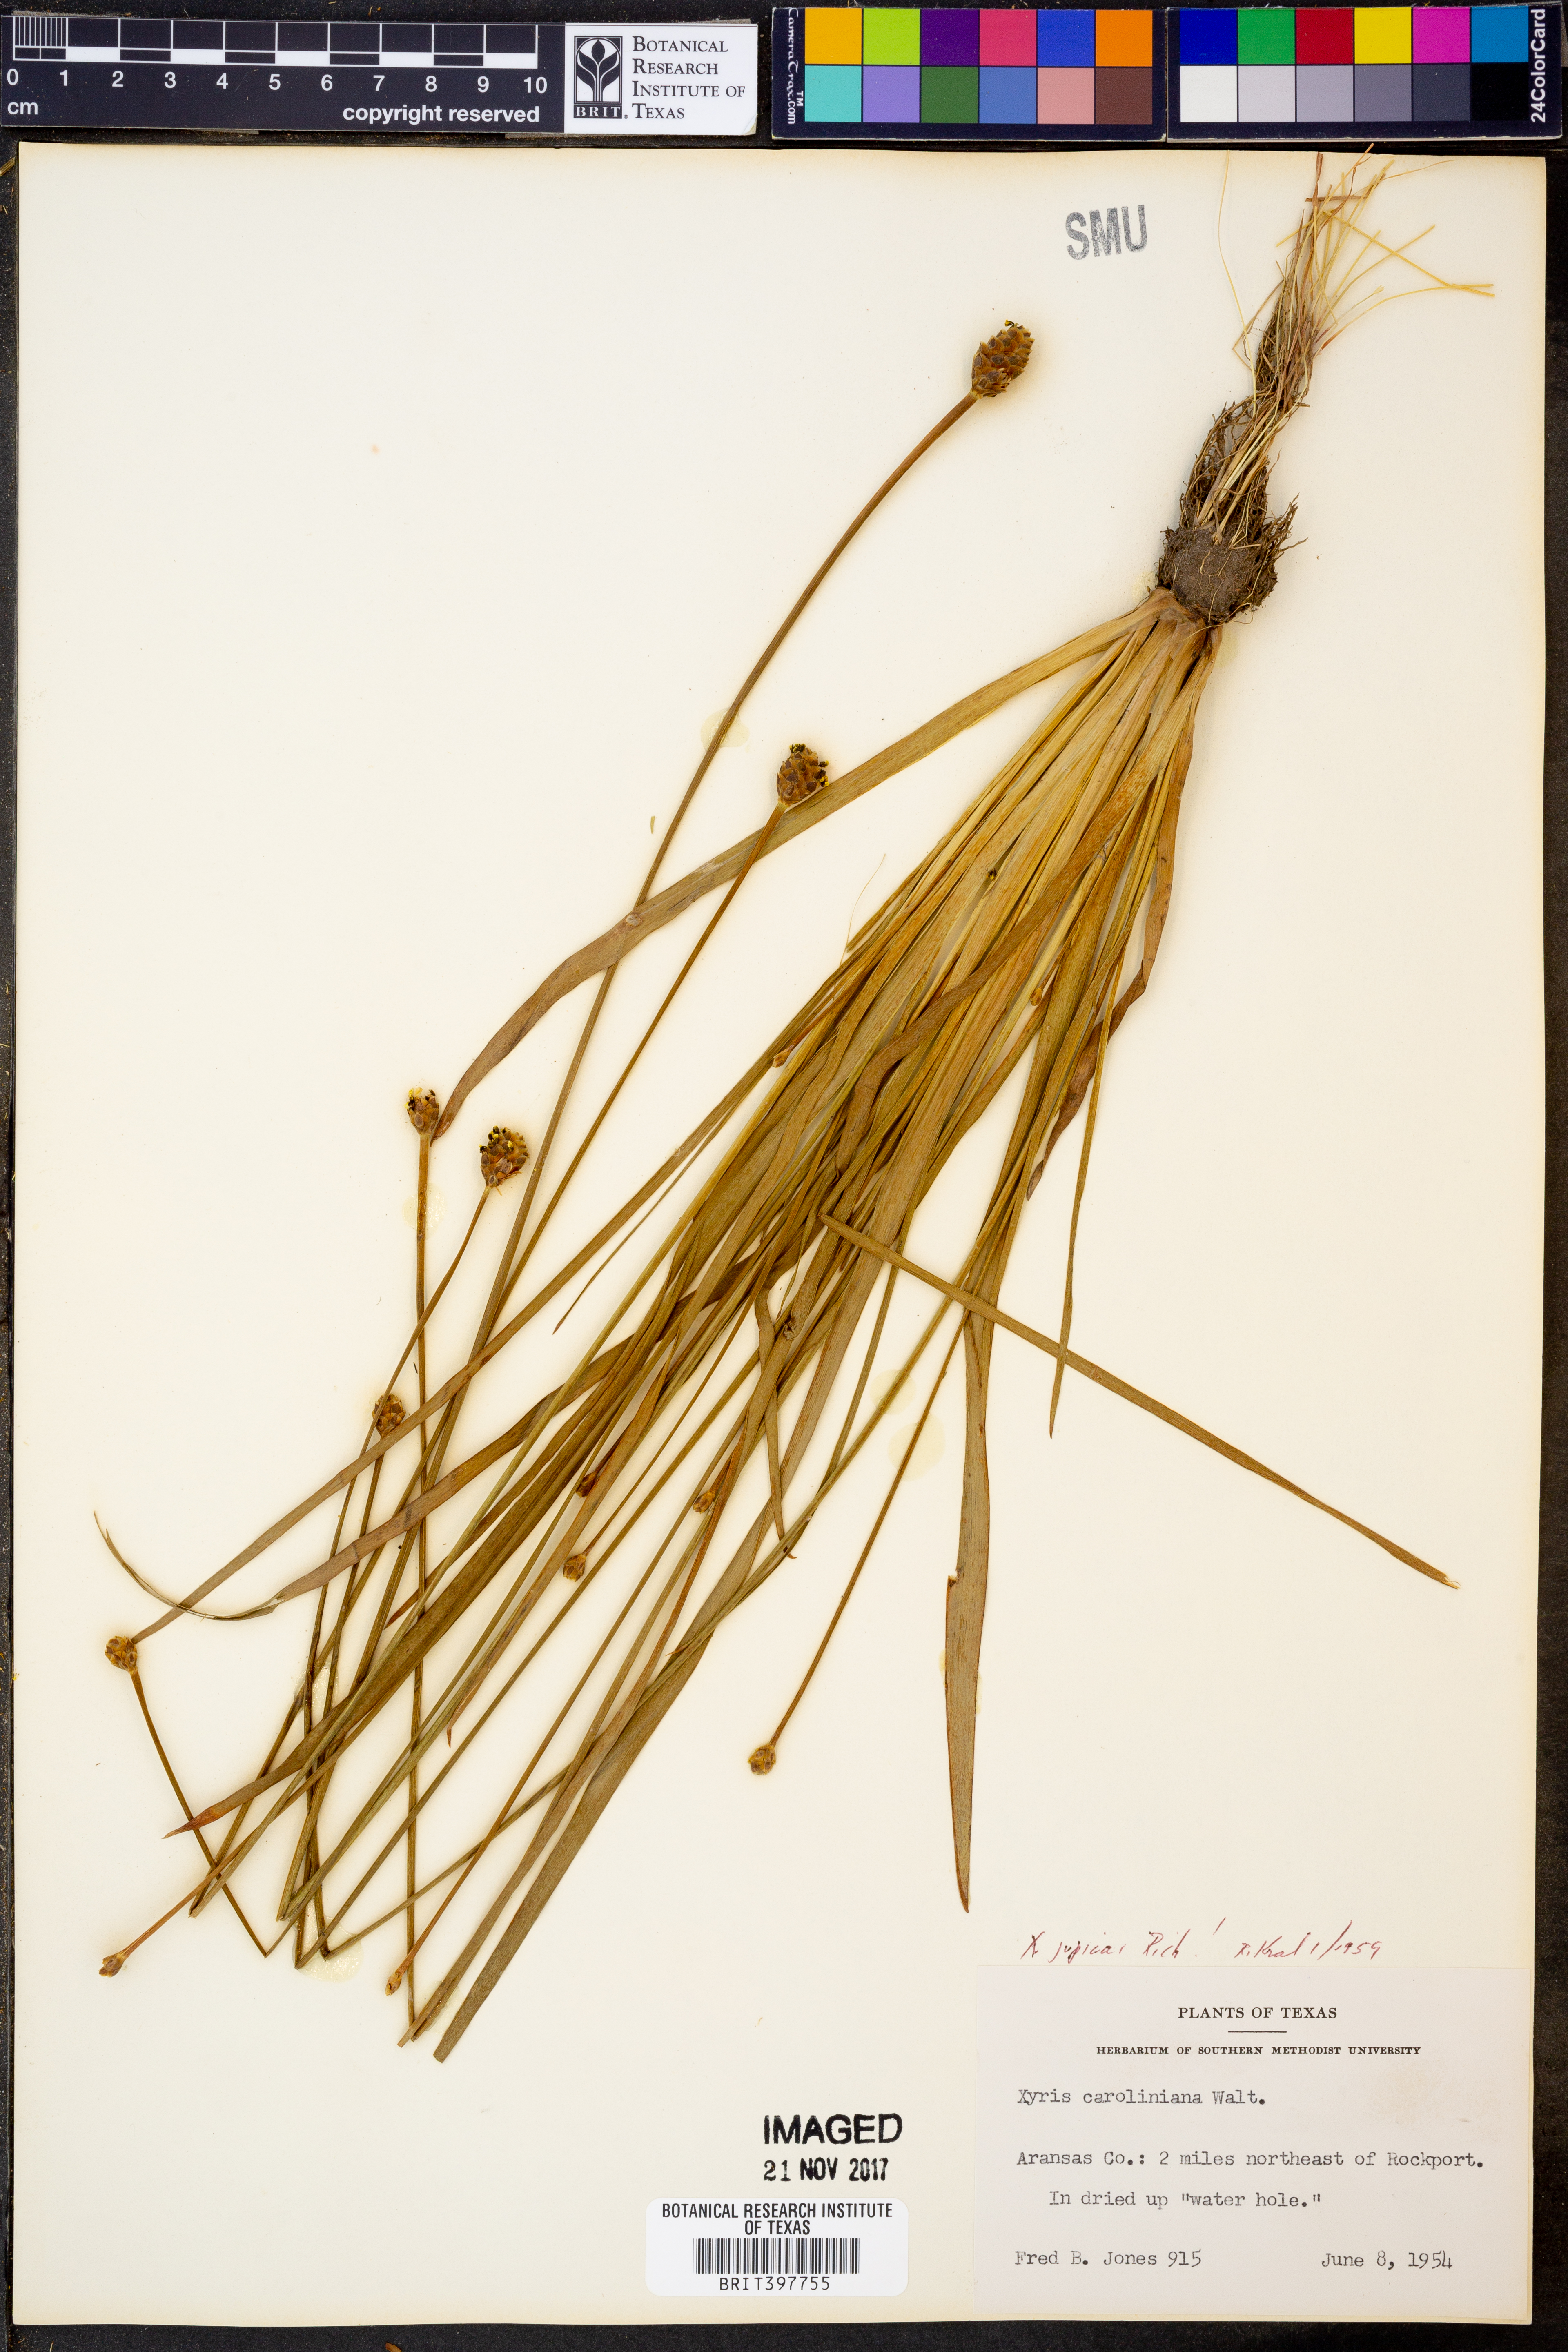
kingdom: Plantae
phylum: Tracheophyta
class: Liliopsida
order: Poales
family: Xyridaceae
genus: Xyris
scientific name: Xyris jupicai
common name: Richard's yelloweyed grass
